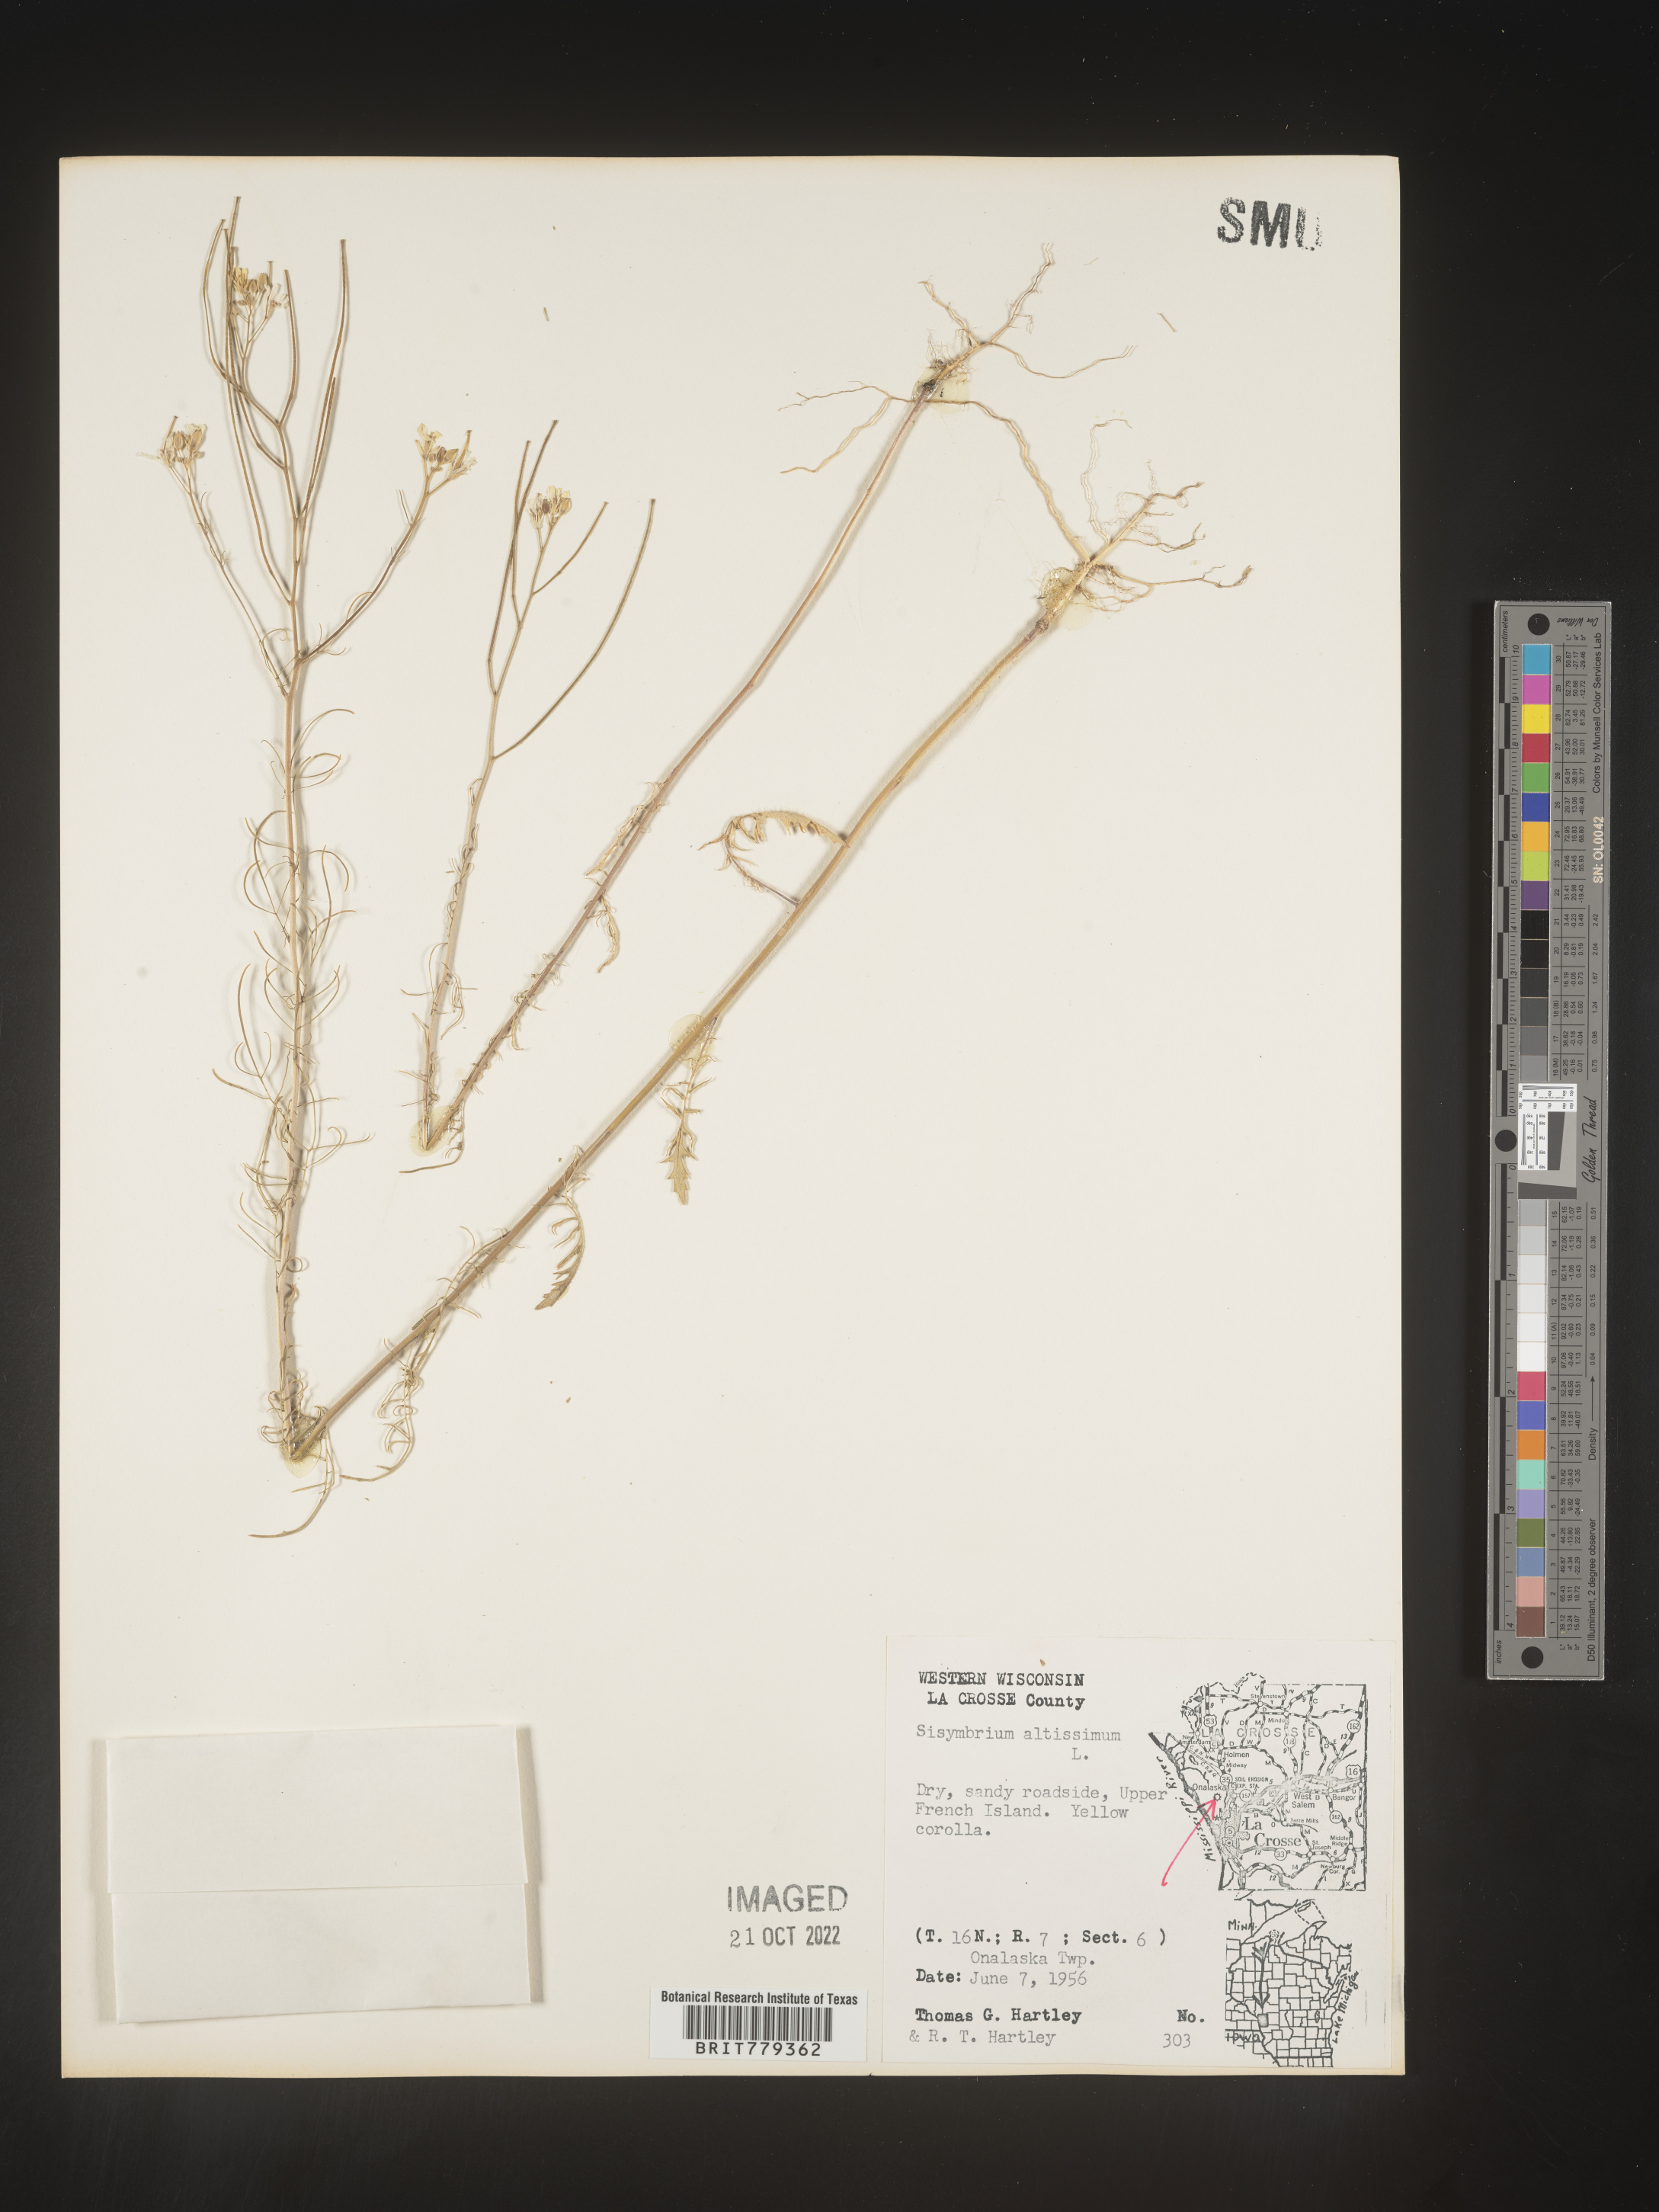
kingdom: Plantae
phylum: Tracheophyta
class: Magnoliopsida
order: Brassicales
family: Brassicaceae
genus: Sisymbrium
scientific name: Sisymbrium altissimum
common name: Tall rocket
